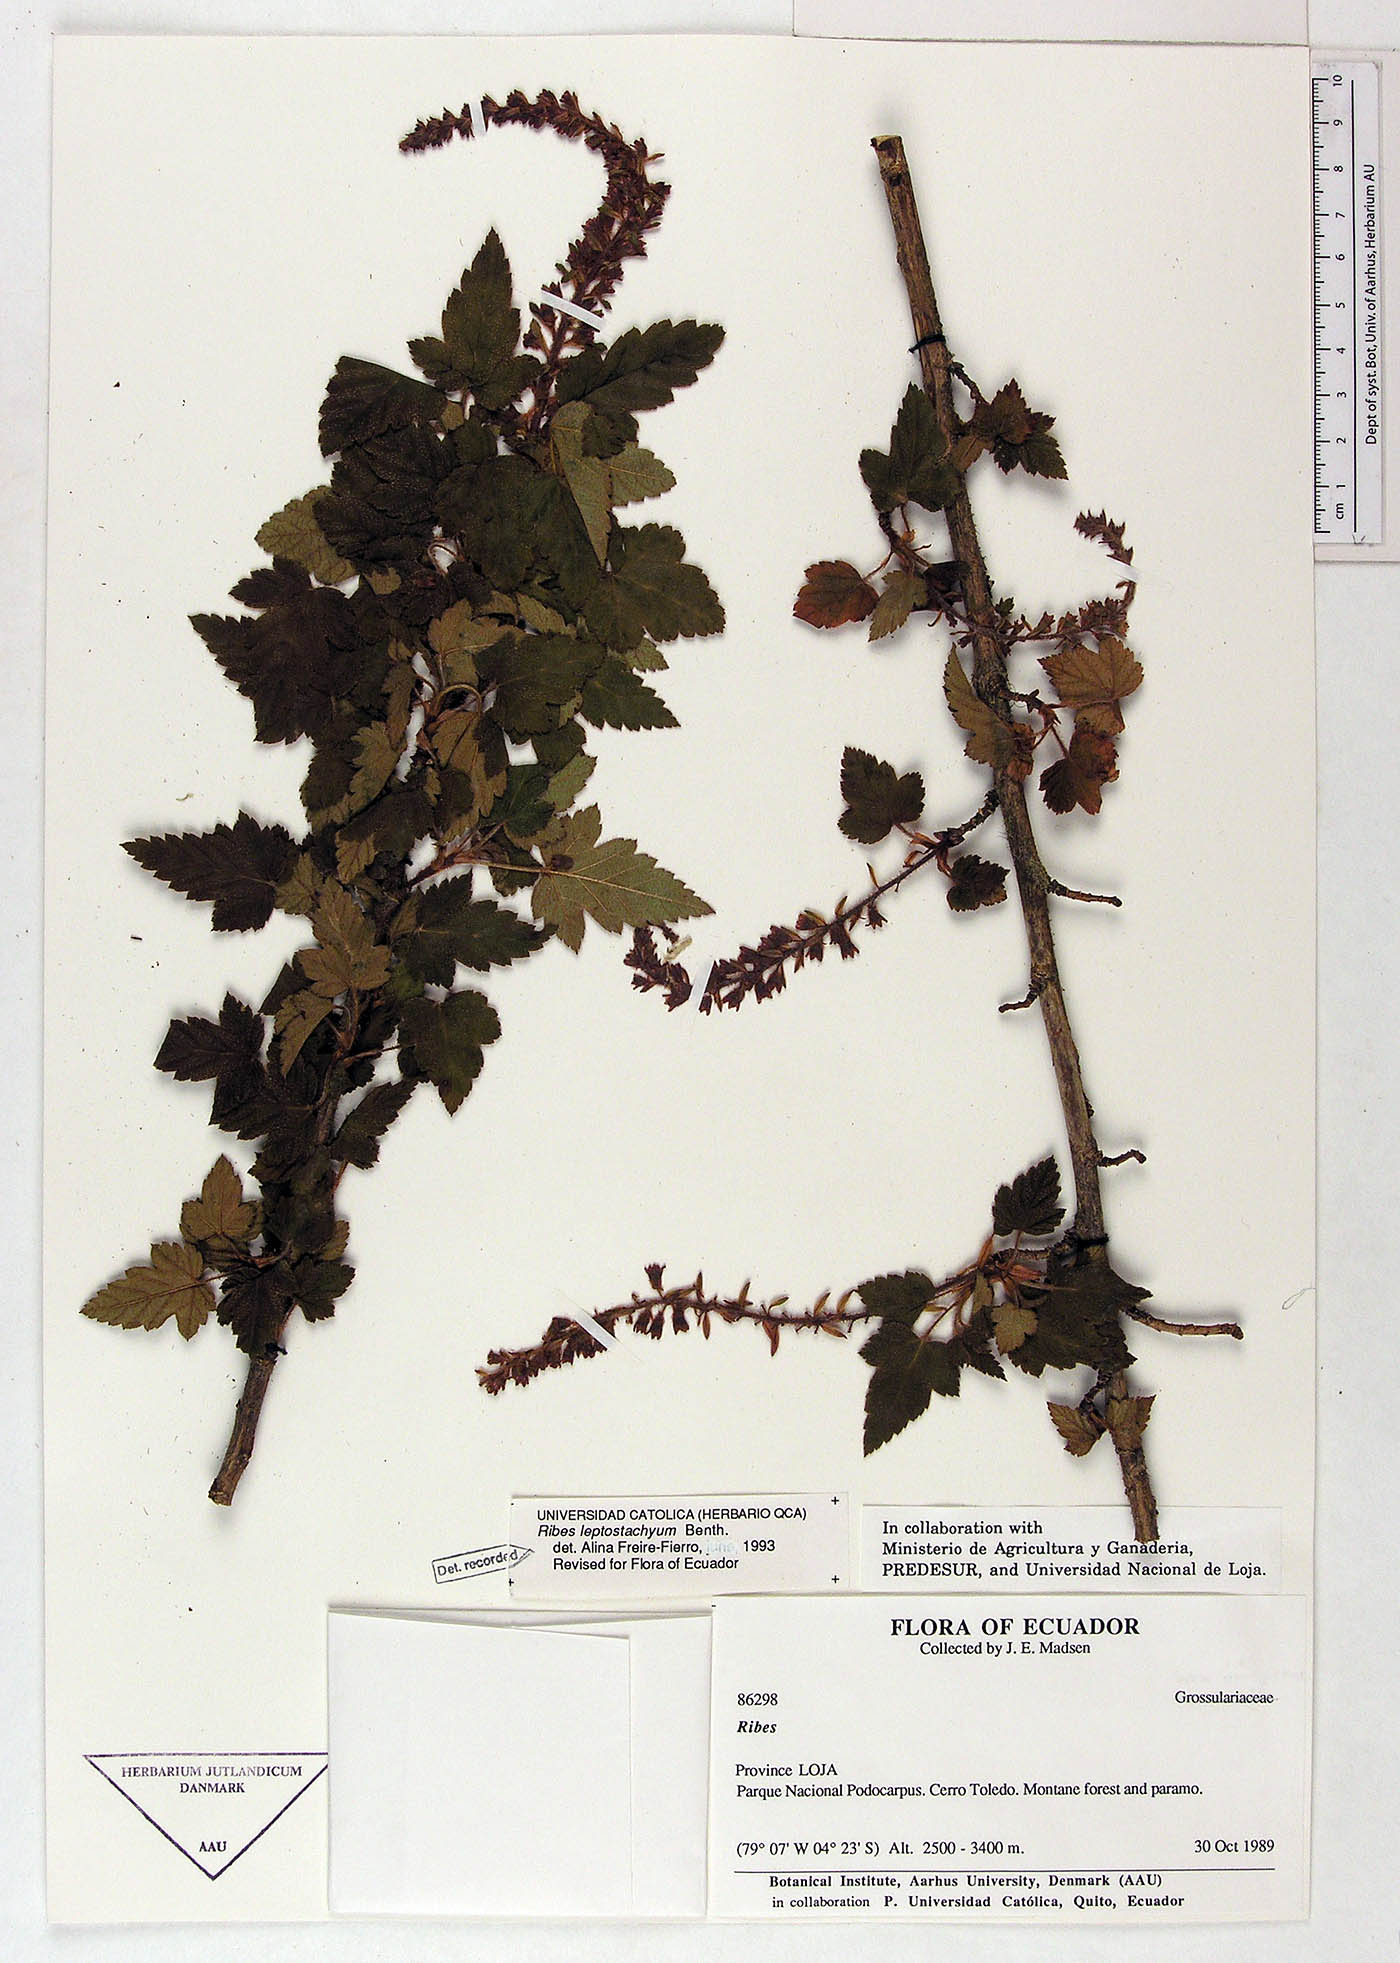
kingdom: Plantae
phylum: Tracheophyta
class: Magnoliopsida
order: Saxifragales
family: Grossulariaceae
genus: Ribes
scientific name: Ribes leptostachyum
